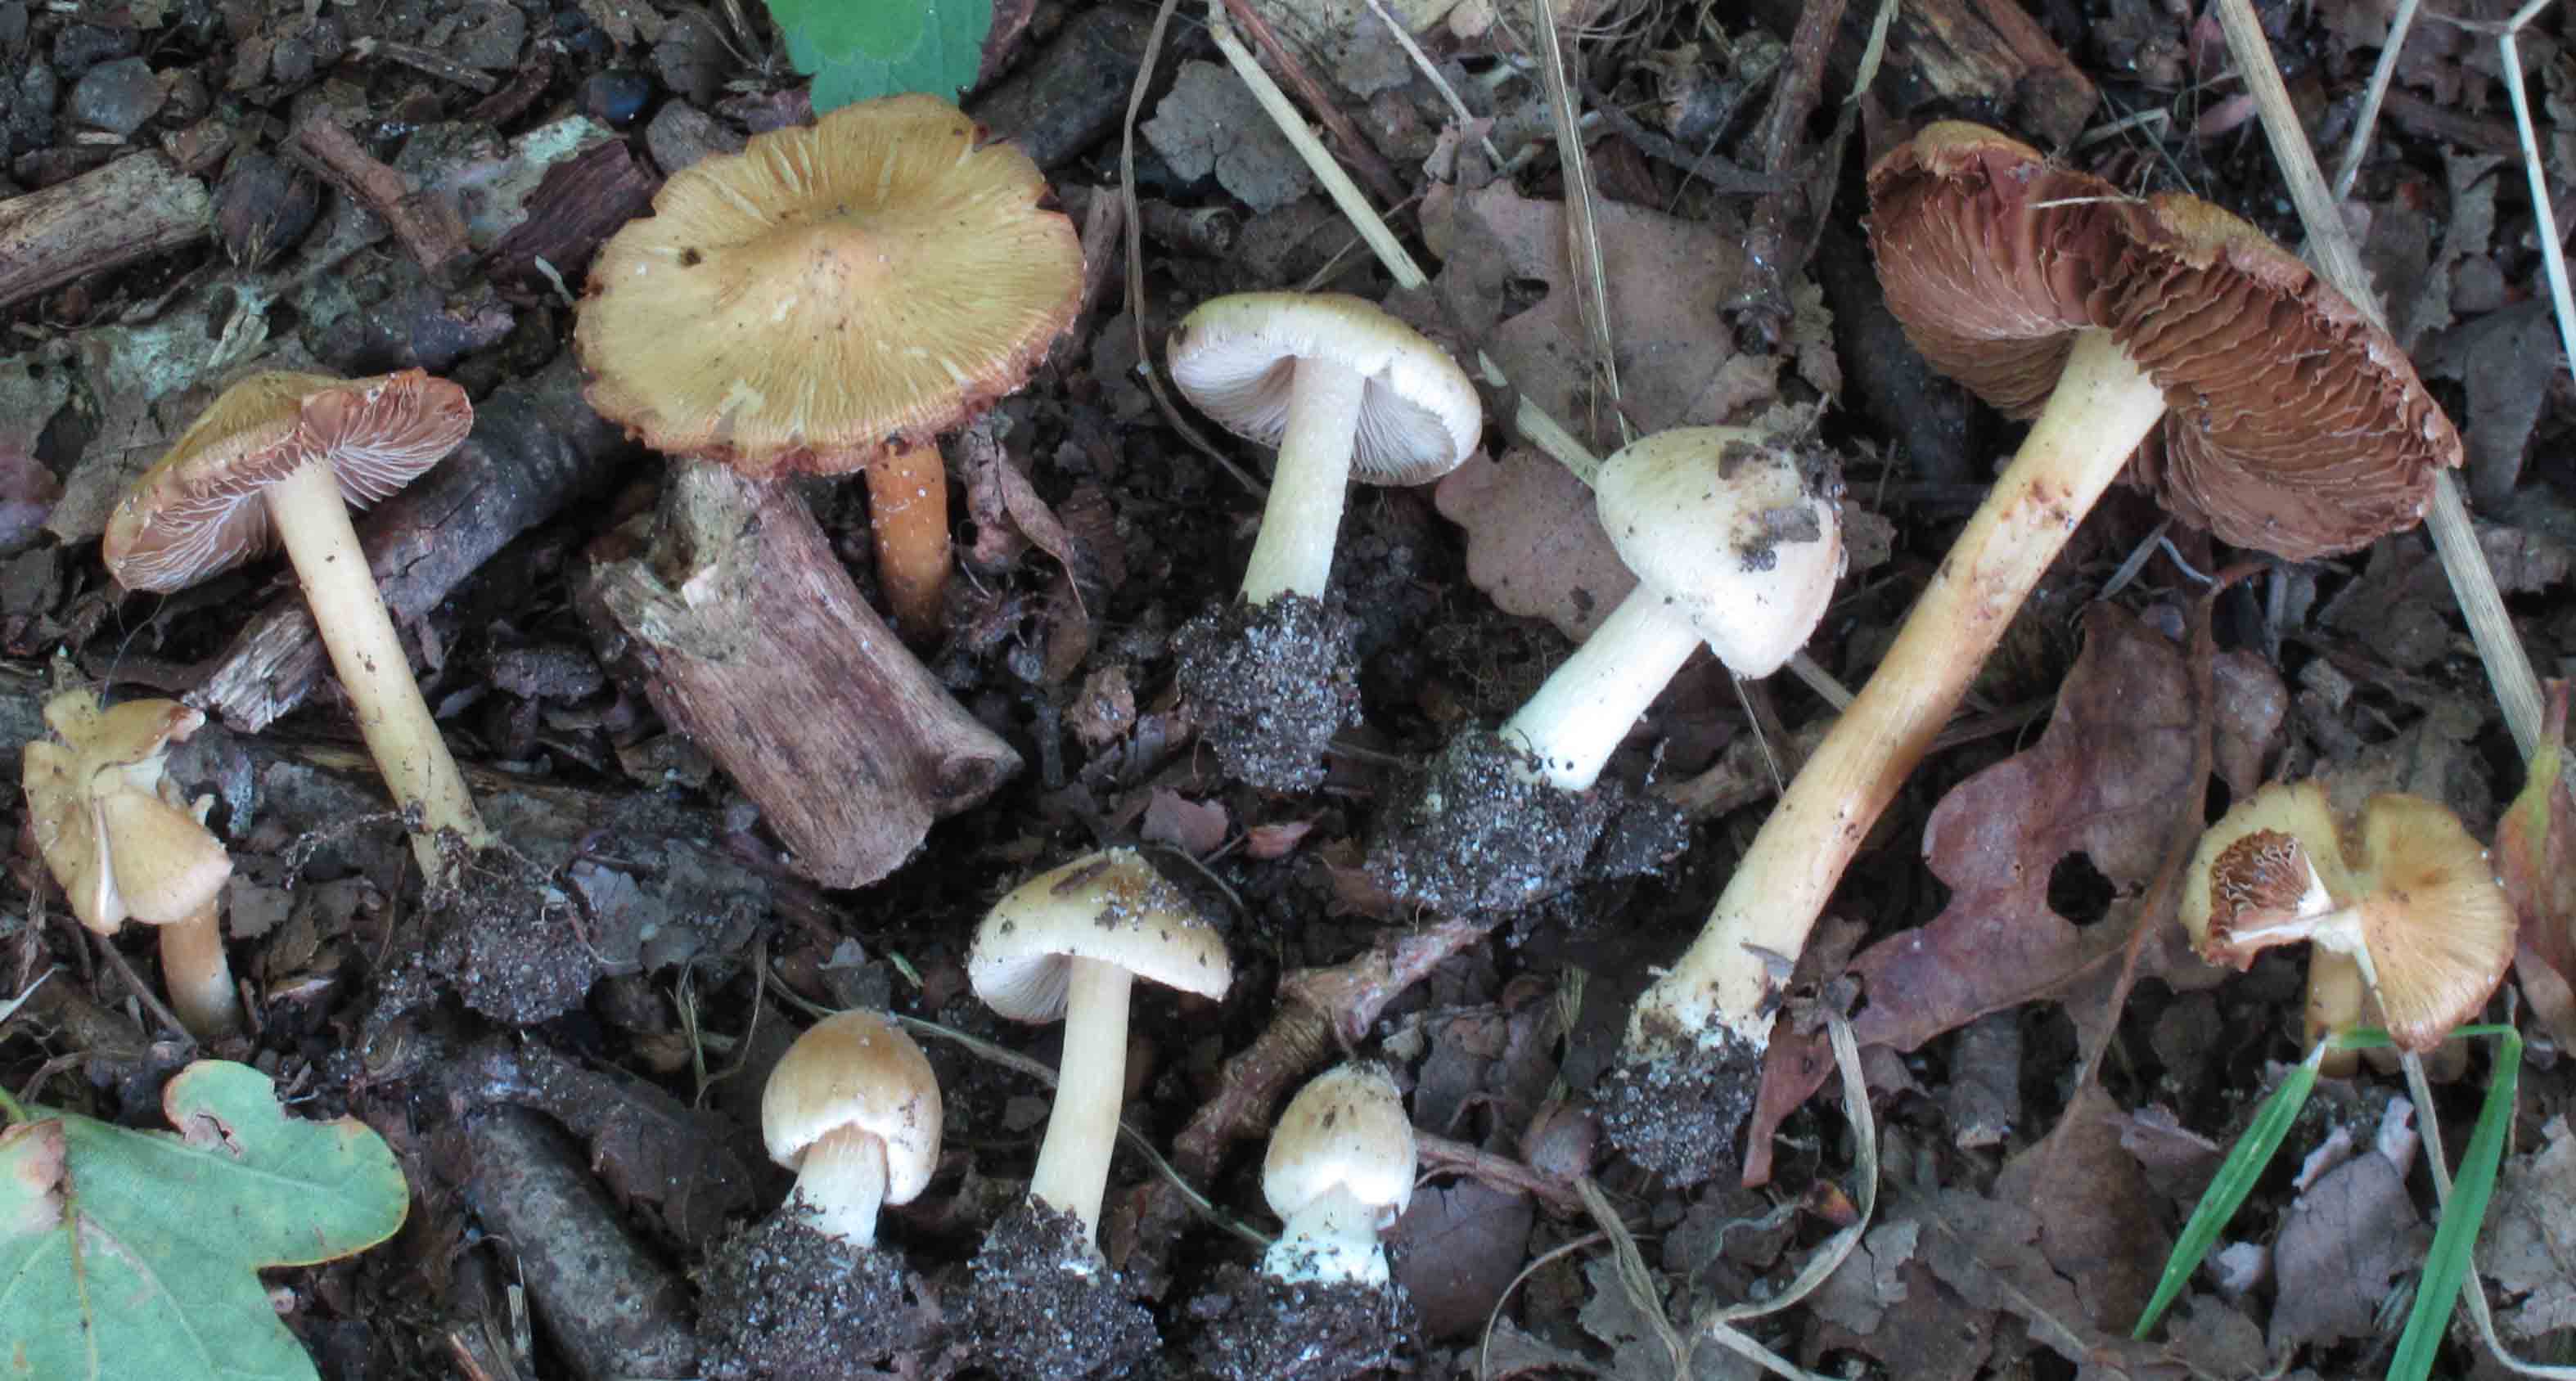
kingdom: Fungi
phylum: Basidiomycota
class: Agaricomycetes
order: Agaricales
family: Inocybaceae
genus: Inosperma
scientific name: Inosperma
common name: strågul trævlhat
